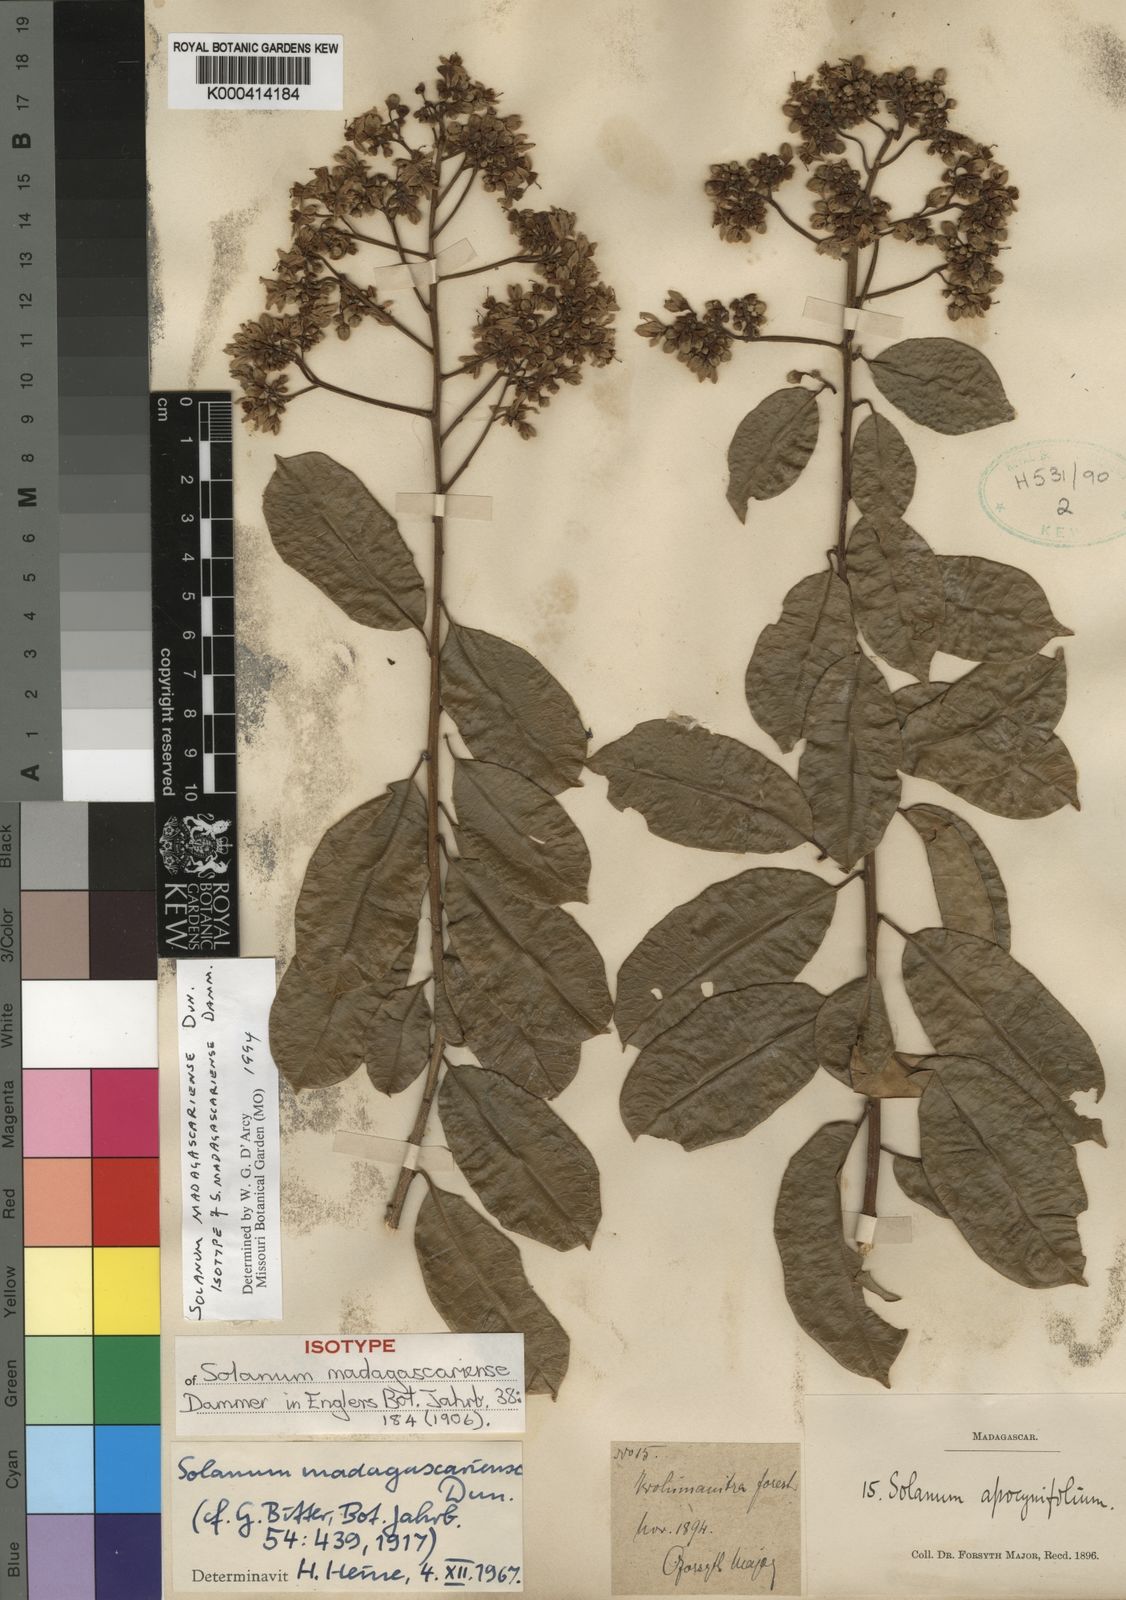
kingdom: Plantae
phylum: Tracheophyta
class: Magnoliopsida
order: Solanales
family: Solanaceae
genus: Solanum
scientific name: Solanum madagascariense
